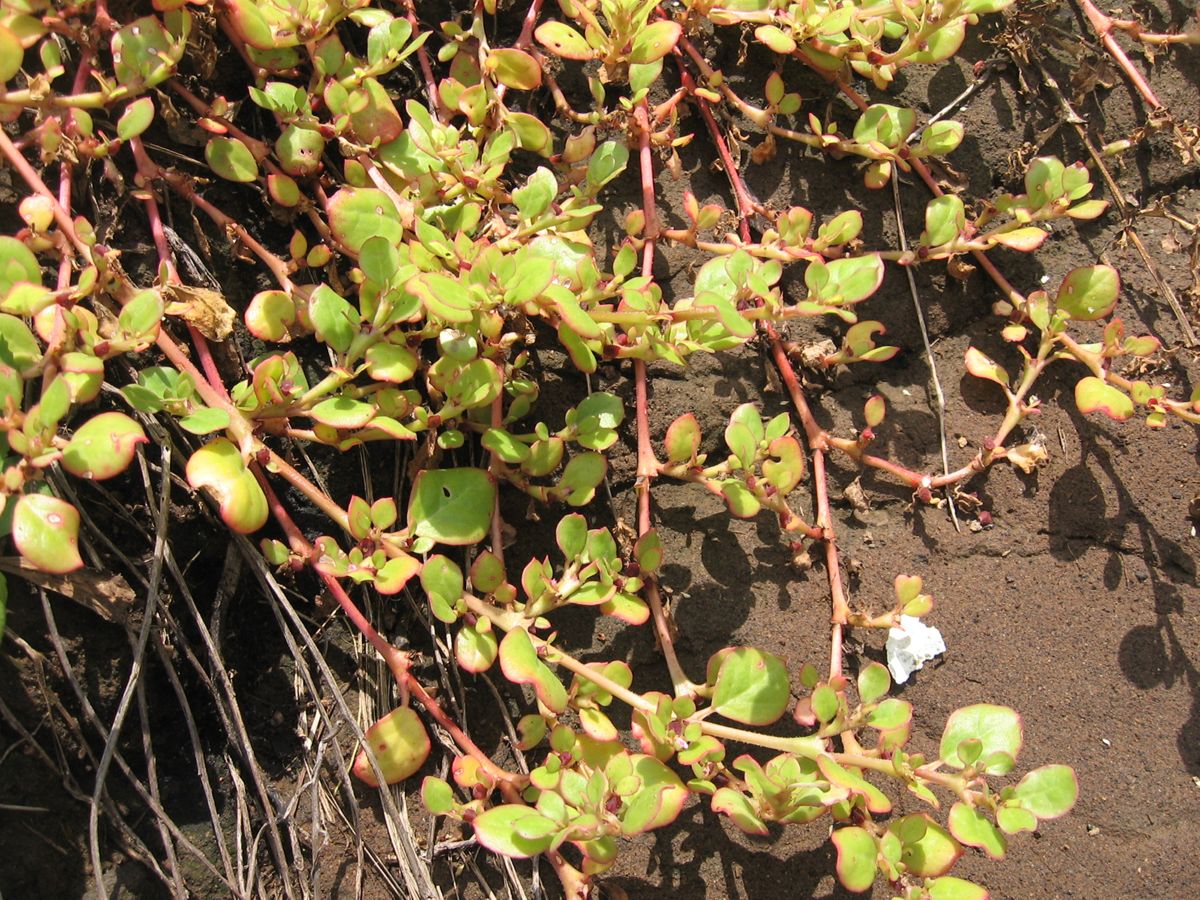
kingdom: Plantae
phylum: Tracheophyta
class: Magnoliopsida
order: Caryophyllales
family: Aizoaceae
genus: Trianthema
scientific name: Trianthema portulacastrum
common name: Desert horsepurslane
